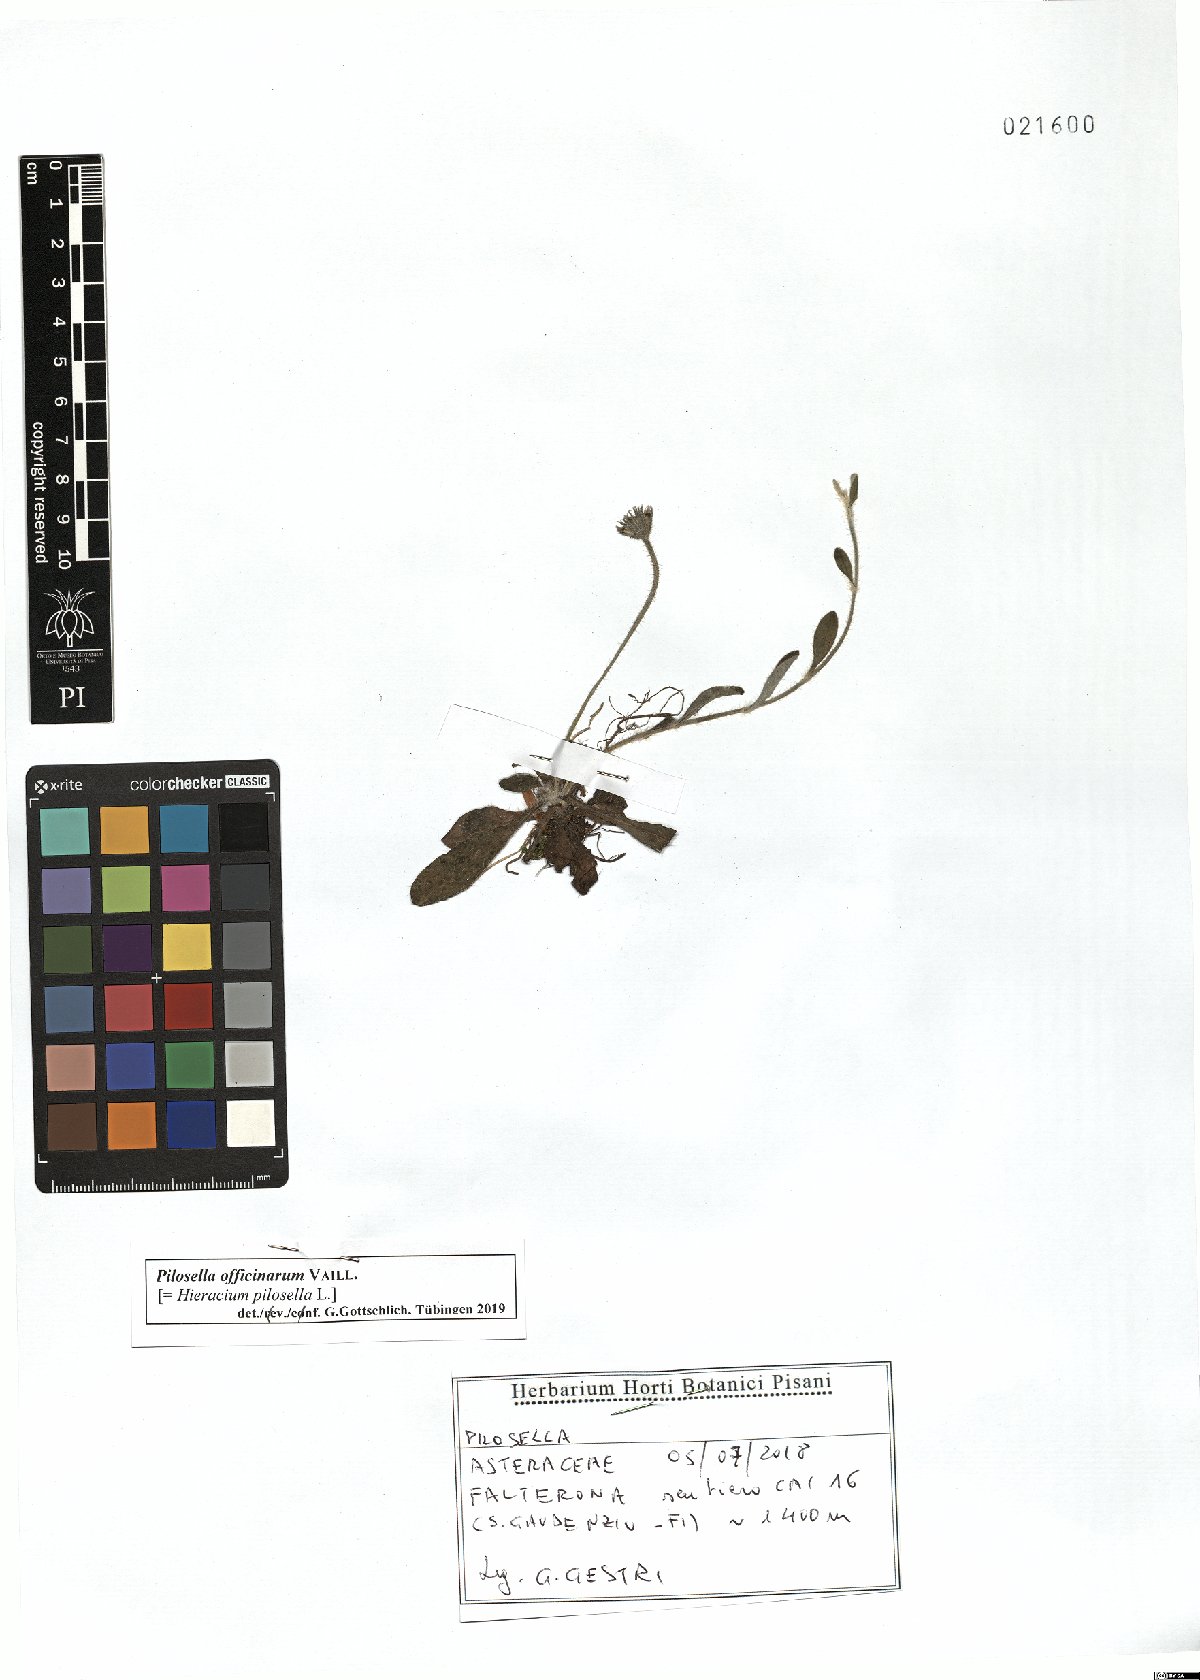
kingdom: Plantae
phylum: Tracheophyta
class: Magnoliopsida
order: Asterales
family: Asteraceae
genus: Pilosella
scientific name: Pilosella officinarum
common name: Mouse-ear hawkweed
